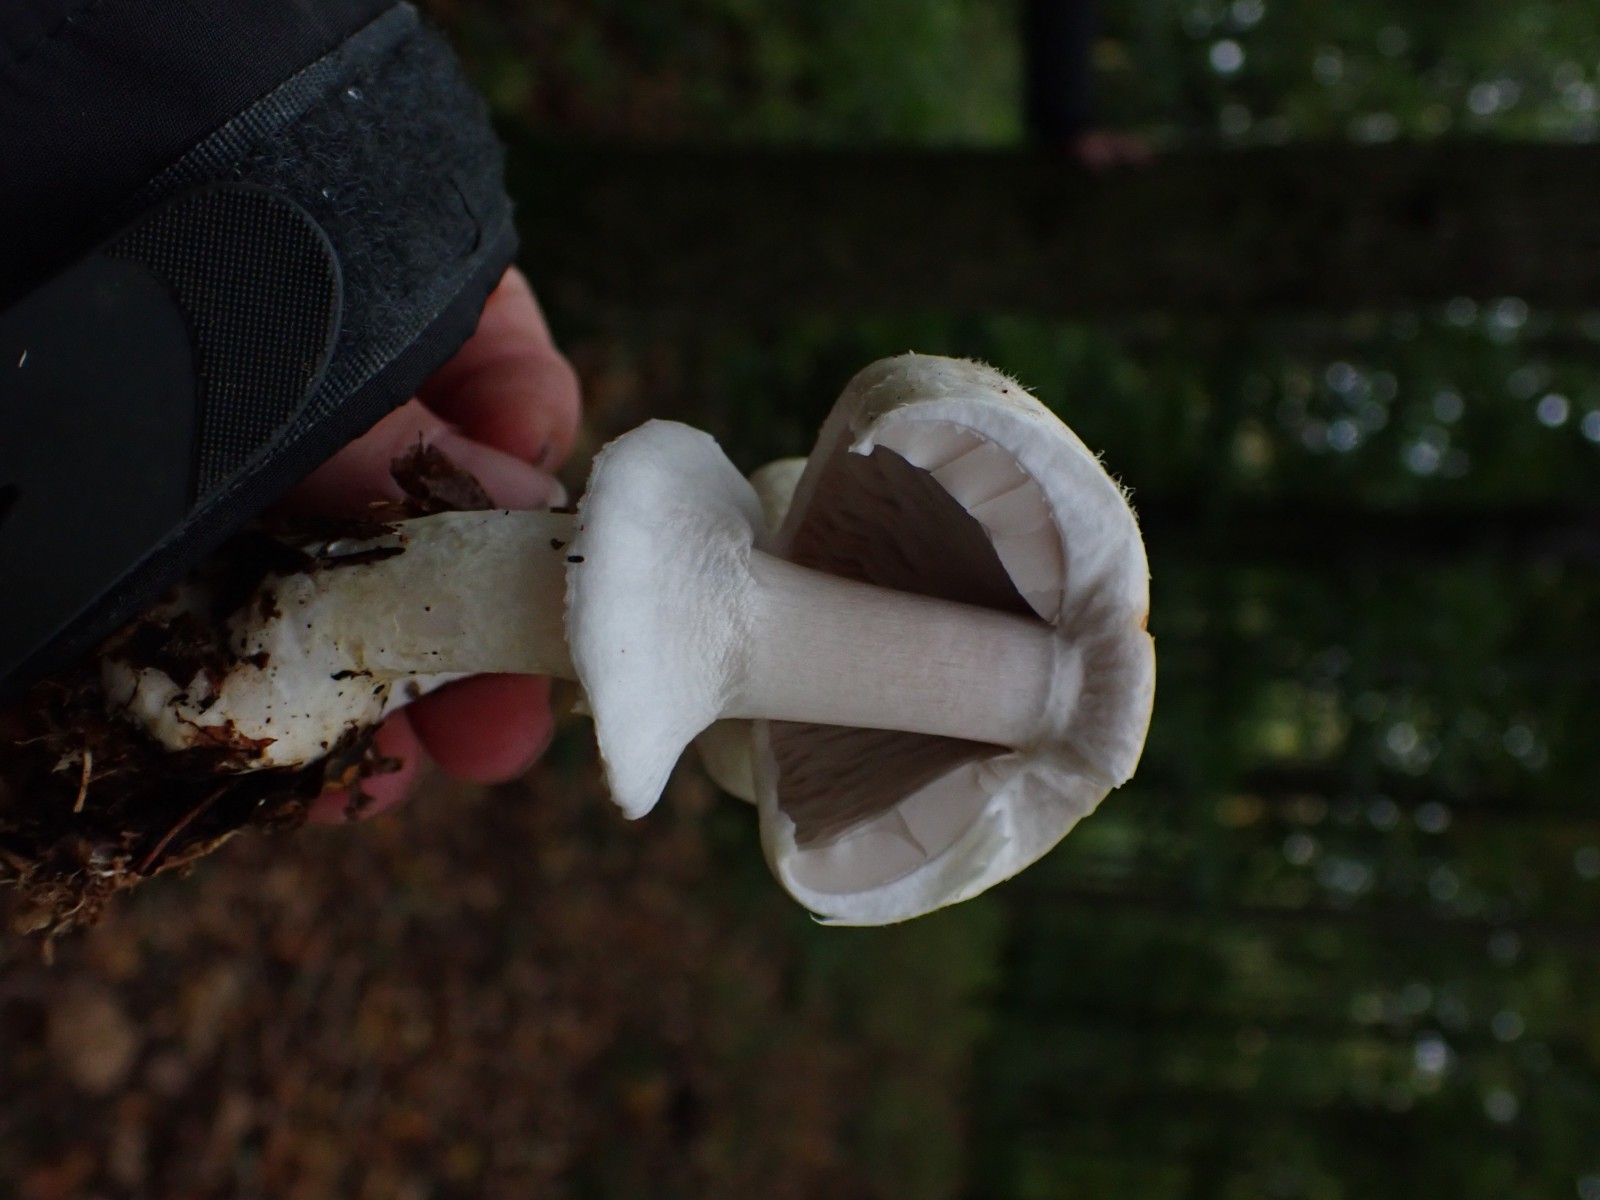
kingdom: Fungi
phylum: Basidiomycota
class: Agaricomycetes
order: Agaricales
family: Agaricaceae
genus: Agaricus
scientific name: Agaricus arvensis
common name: ager-champignon
